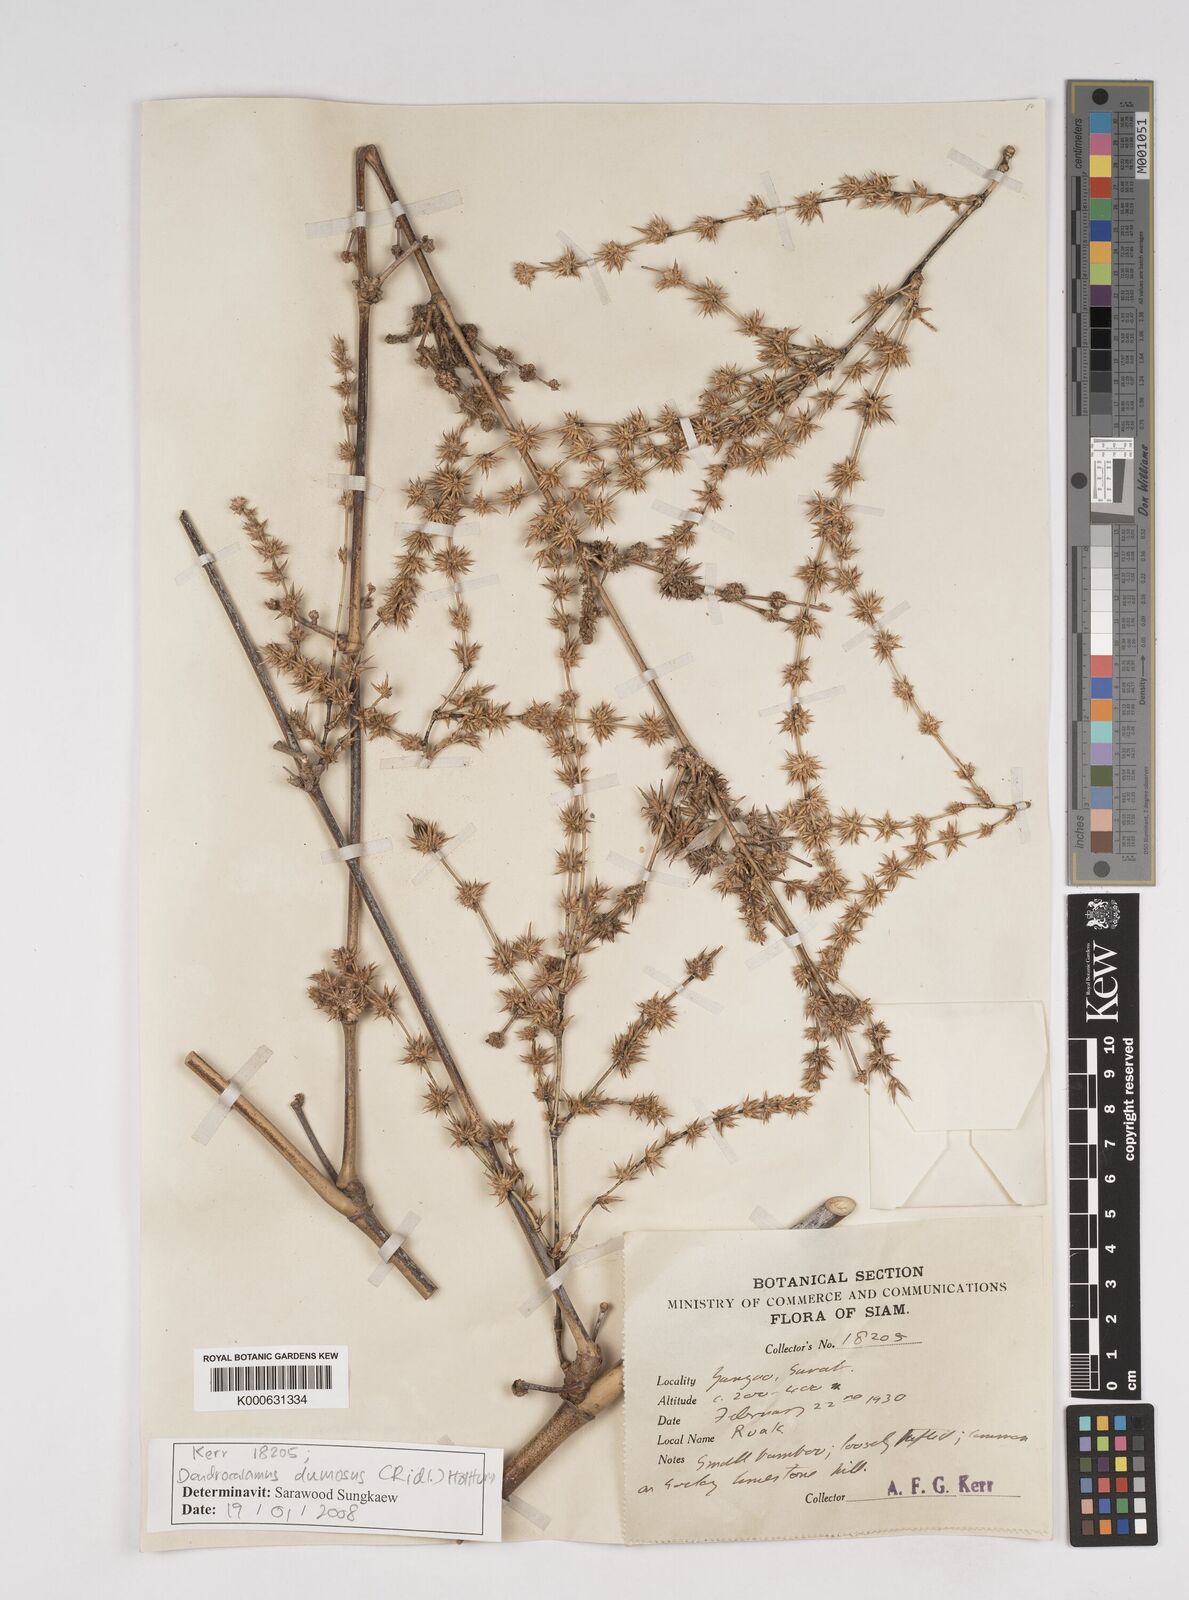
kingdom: Plantae
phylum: Tracheophyta
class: Liliopsida
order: Poales
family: Poaceae
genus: Dendrocalamus
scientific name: Dendrocalamus dumosus
